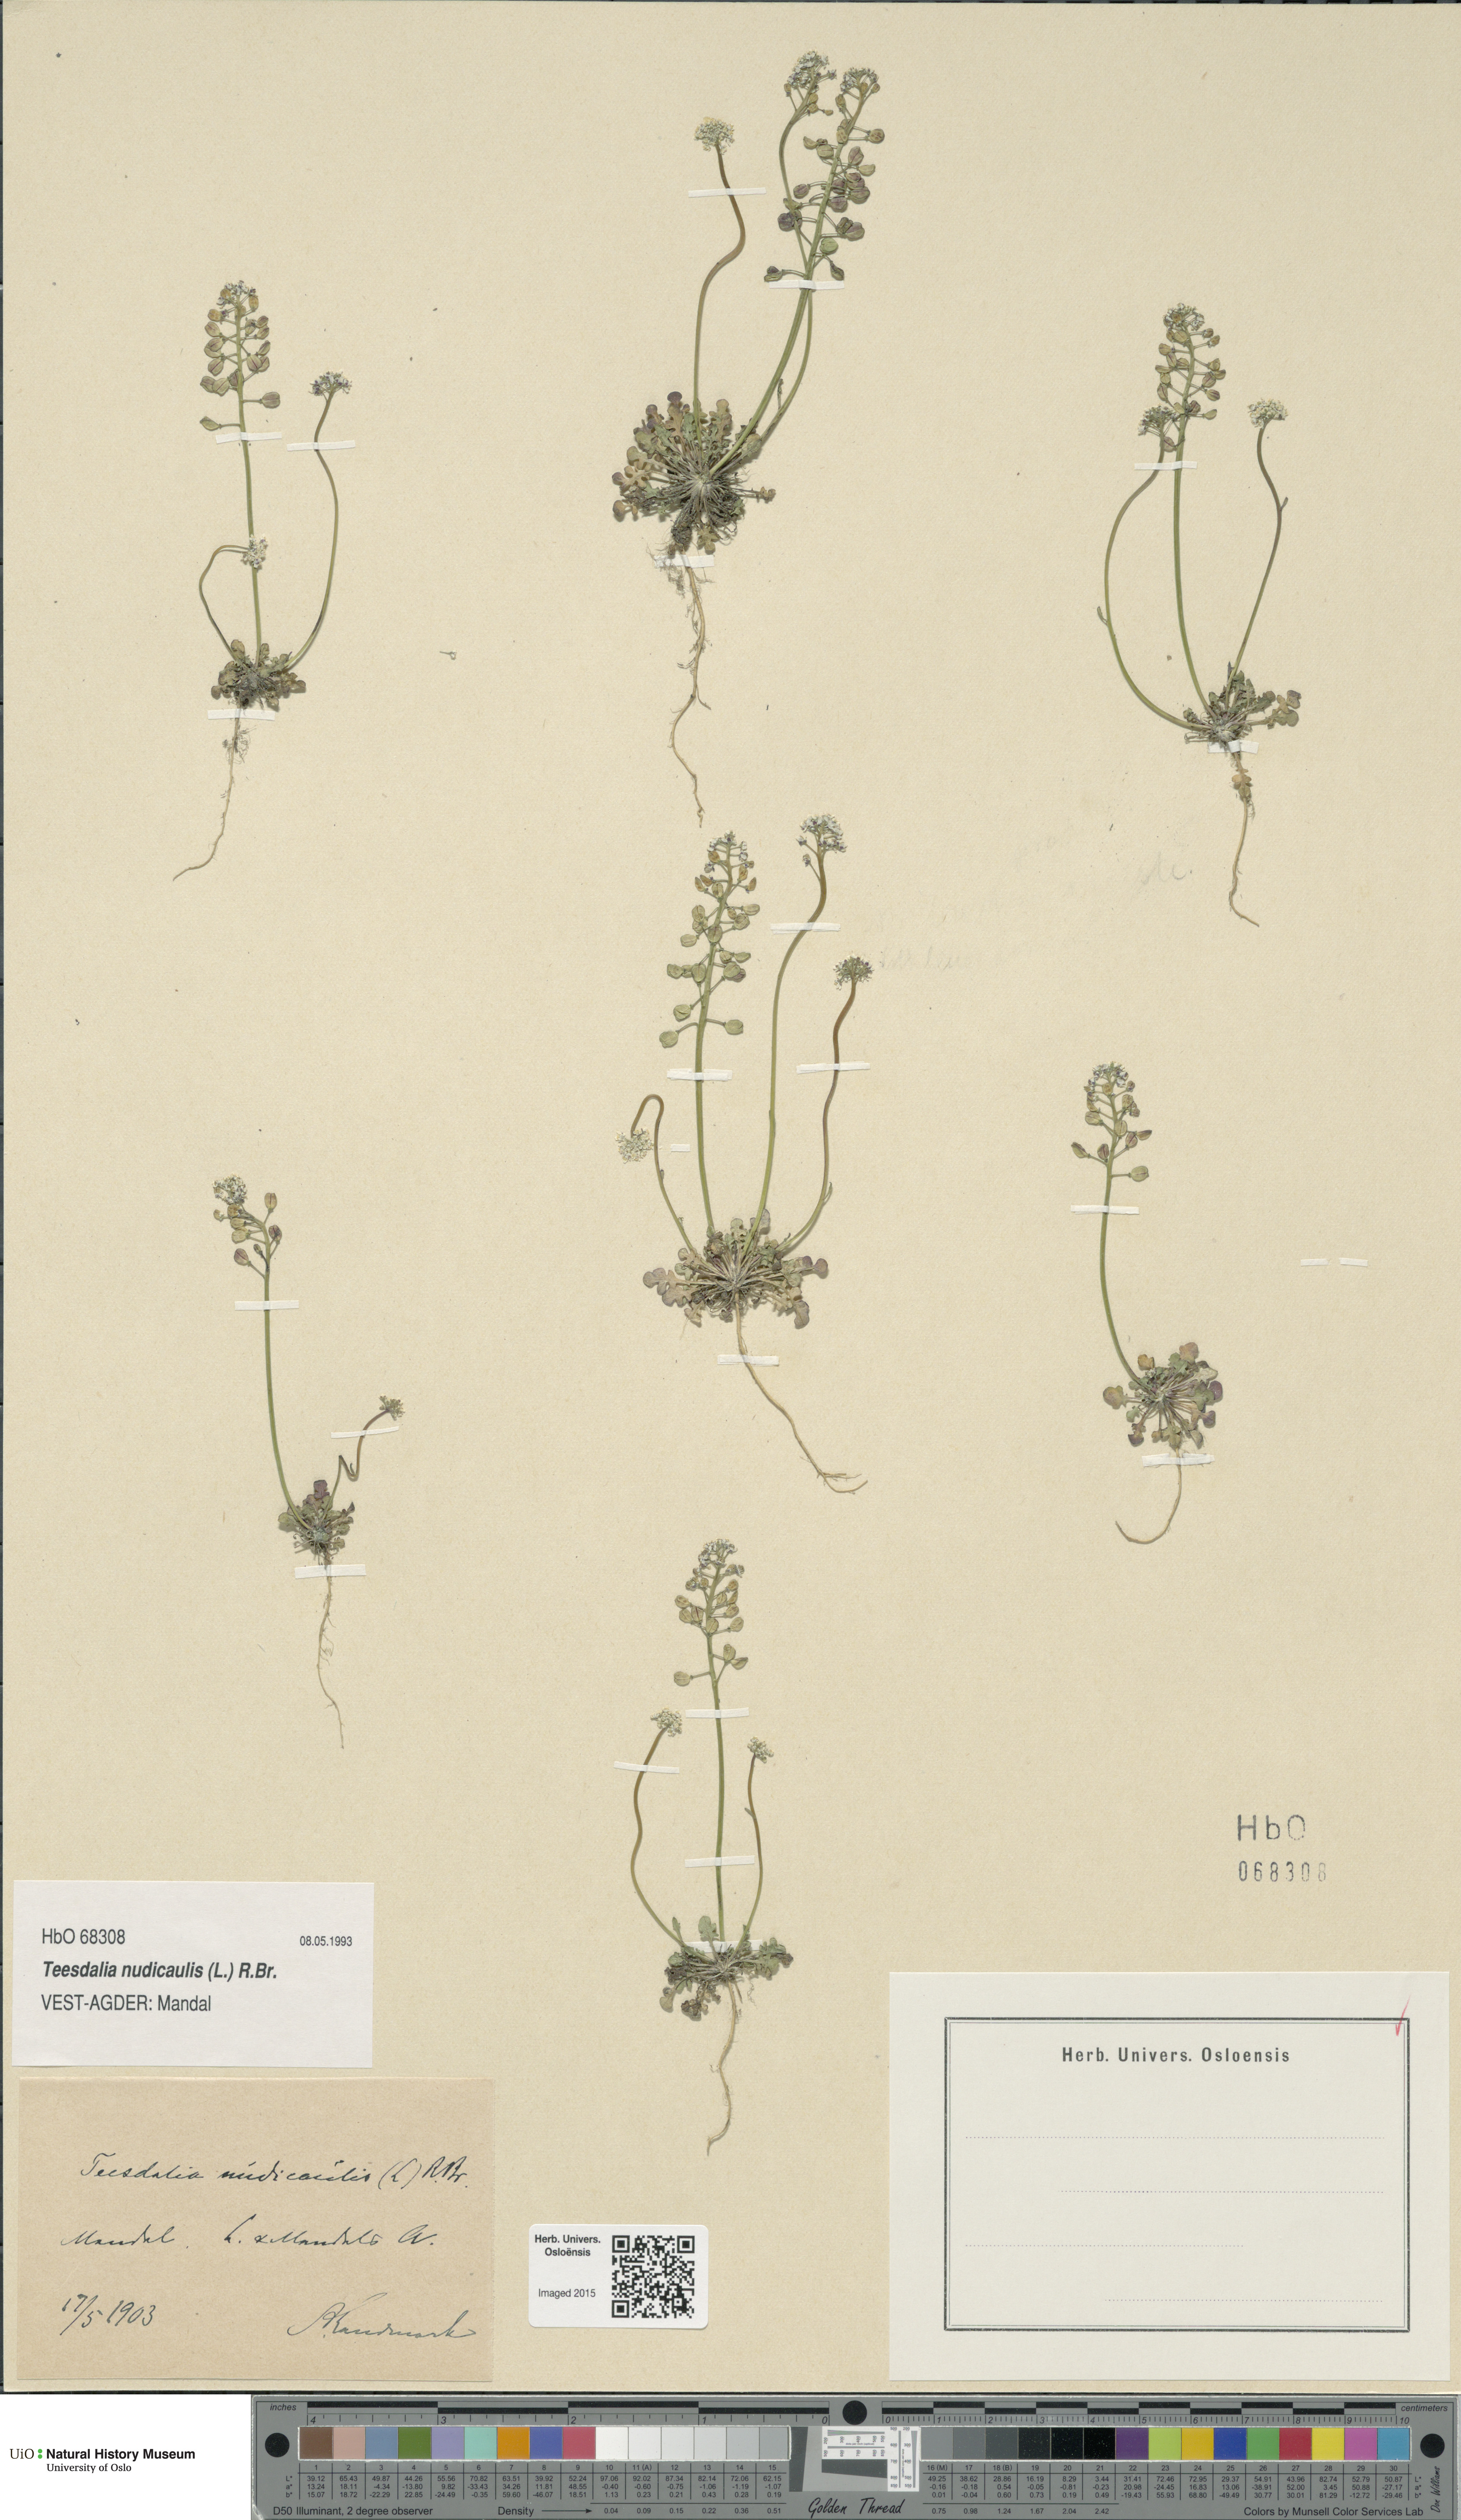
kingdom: Plantae
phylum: Tracheophyta
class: Magnoliopsida
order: Brassicales
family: Brassicaceae
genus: Teesdalia
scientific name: Teesdalia nudicaulis
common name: Shepherd's cress
